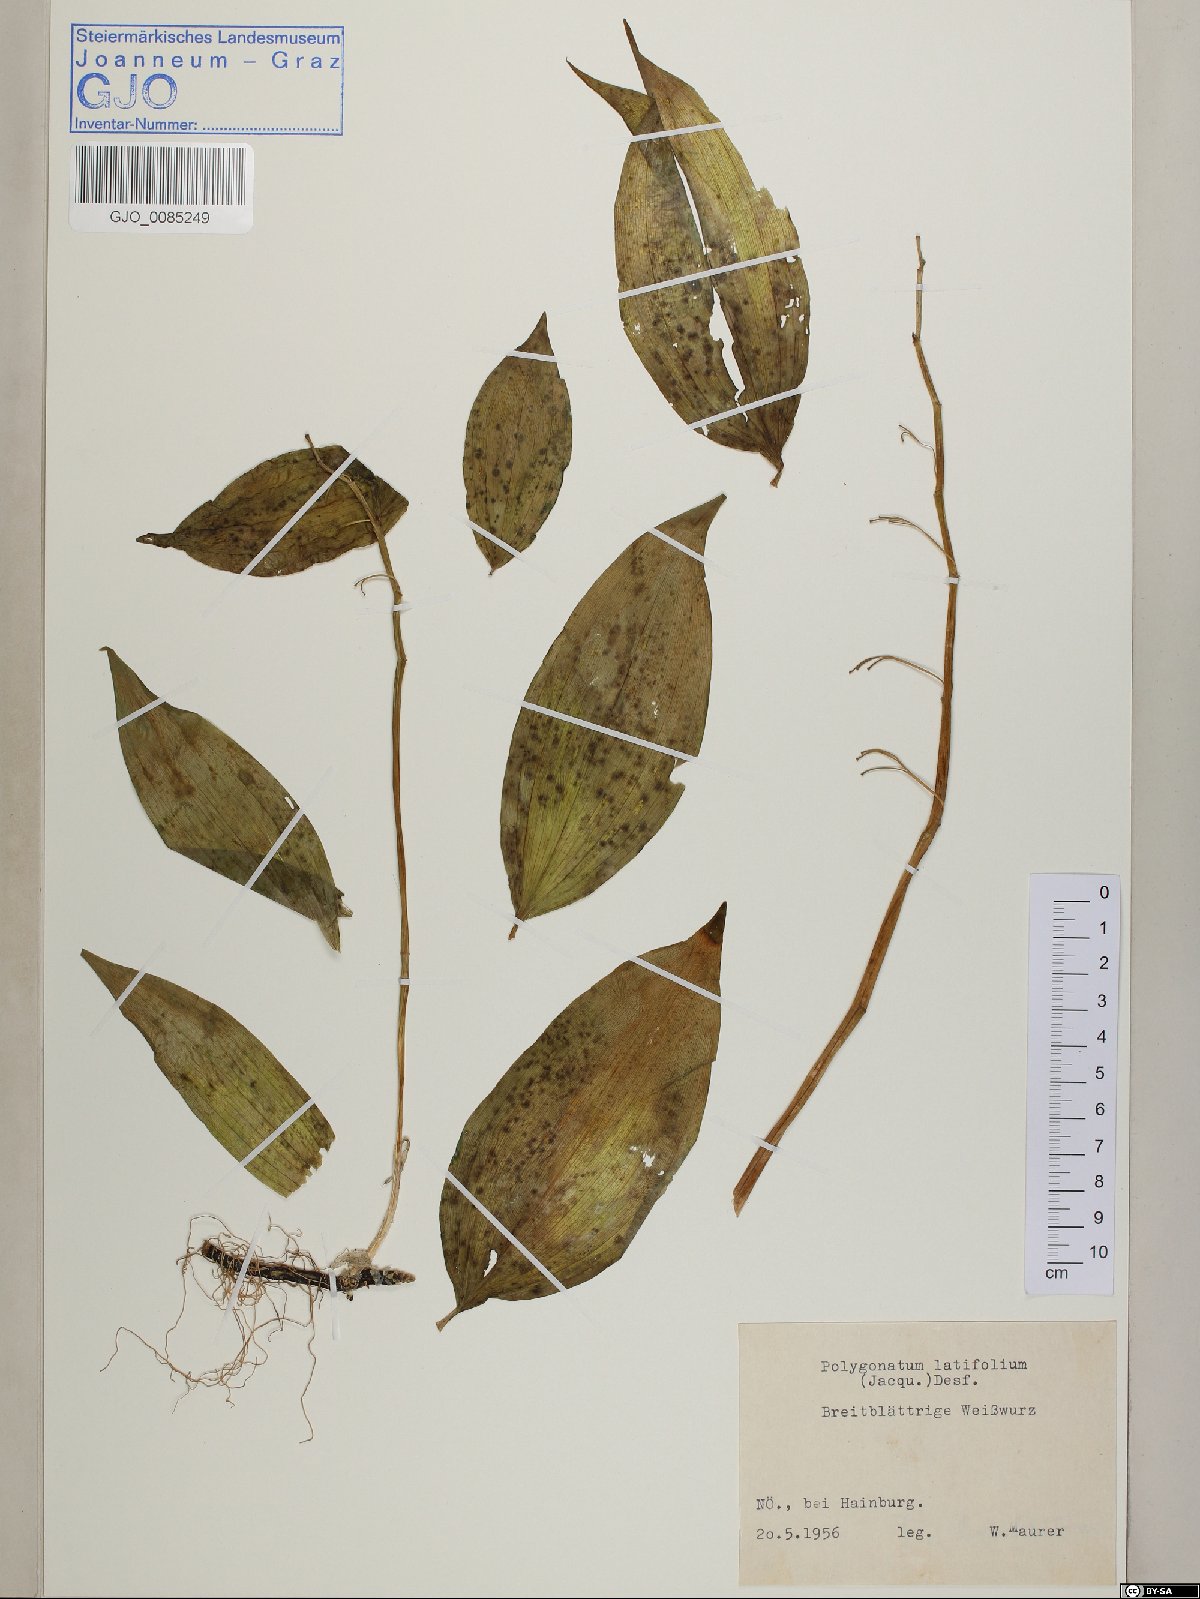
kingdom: Plantae
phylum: Tracheophyta
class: Liliopsida
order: Asparagales
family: Asparagaceae
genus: Polygonatum
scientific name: Polygonatum latifolium
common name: Broadleaf solomon's seal
